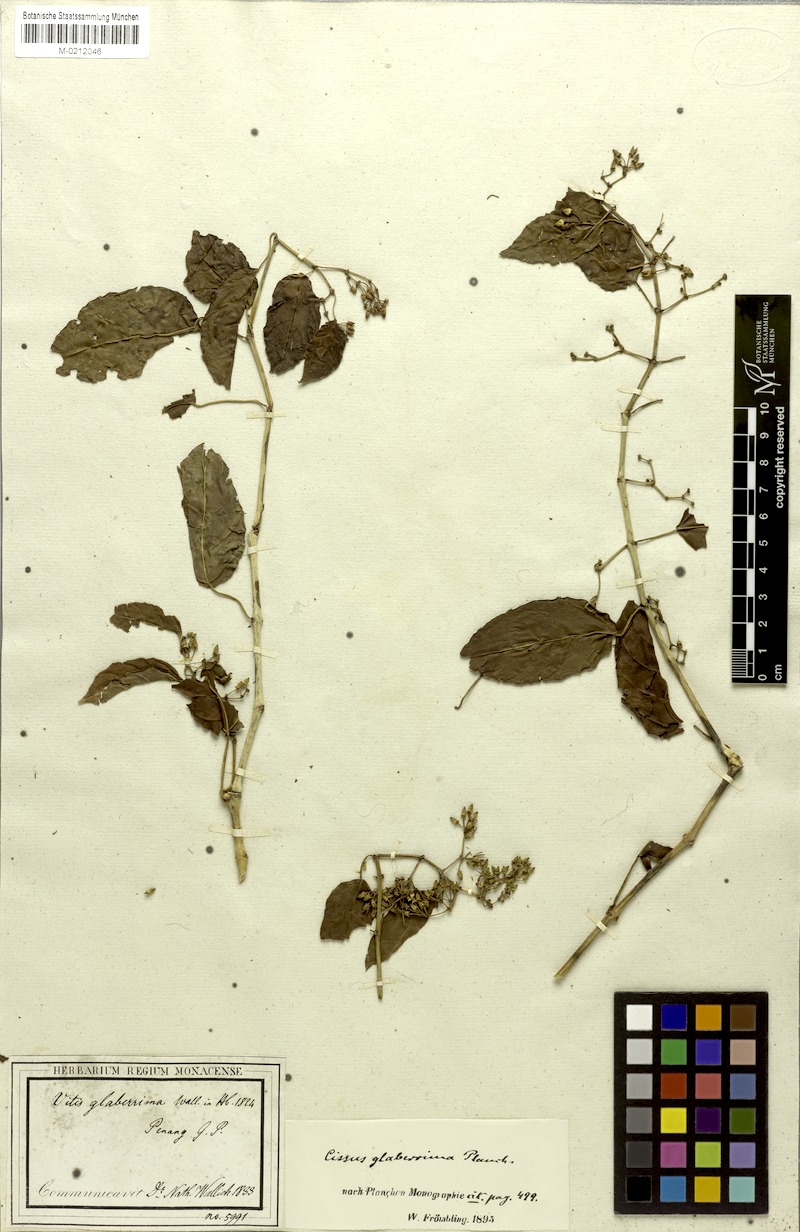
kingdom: Plantae
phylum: Tracheophyta
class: Magnoliopsida
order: Vitales
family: Vitaceae
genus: Cissus
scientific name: Cissus nodosa
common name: Grape ivy
